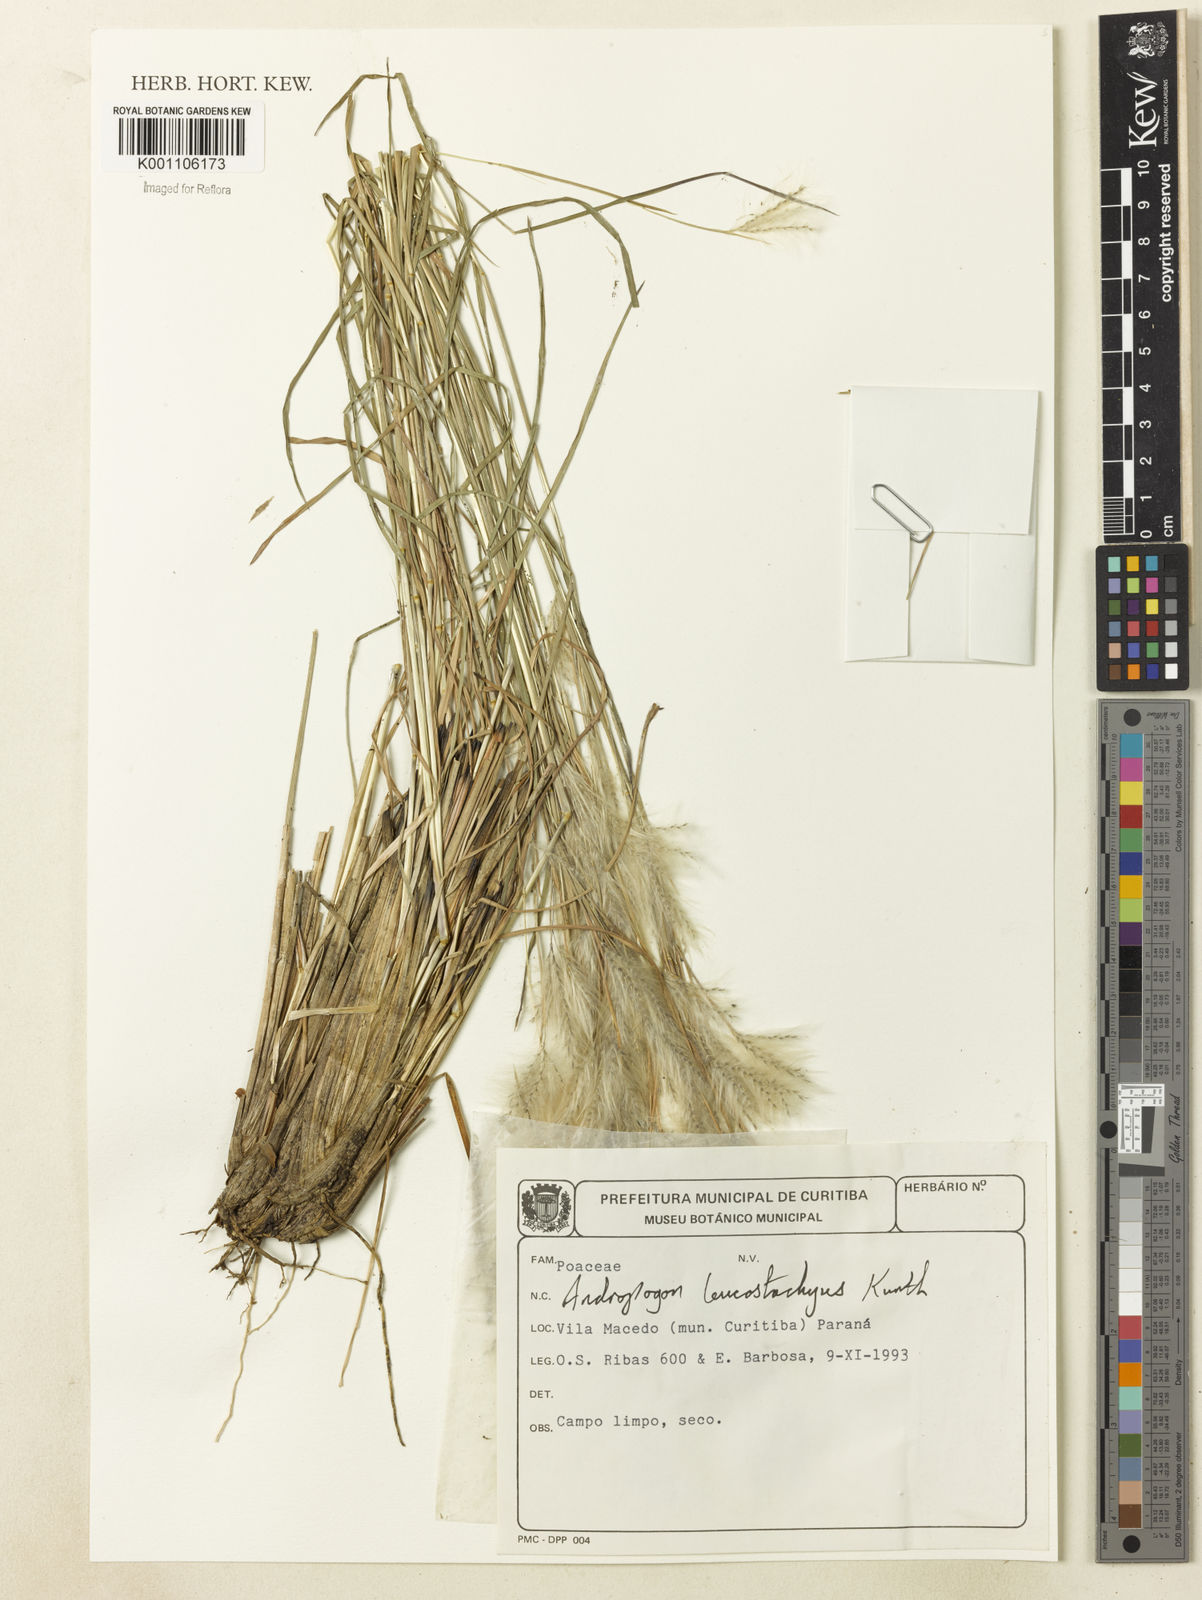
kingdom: Plantae
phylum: Tracheophyta
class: Liliopsida
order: Poales
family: Poaceae
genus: Andropogon
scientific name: Andropogon leucostachyus
